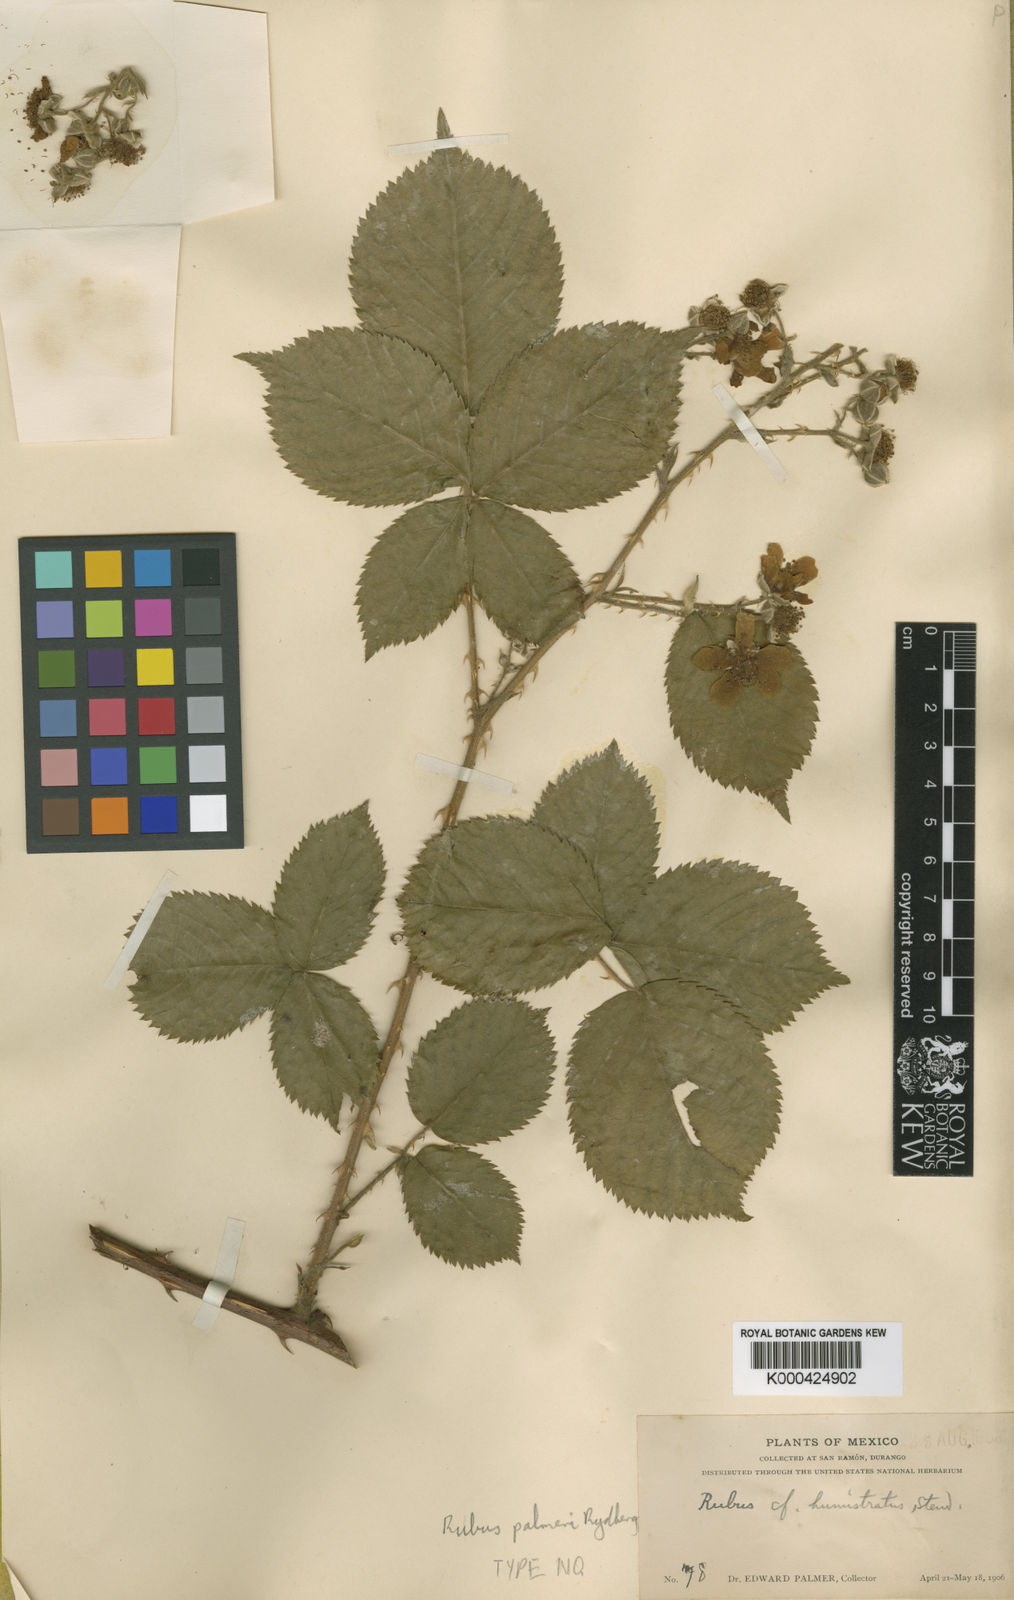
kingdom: Plantae
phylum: Tracheophyta
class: Magnoliopsida
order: Rosales
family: Rosaceae
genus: Rubus
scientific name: Rubus palmeri
